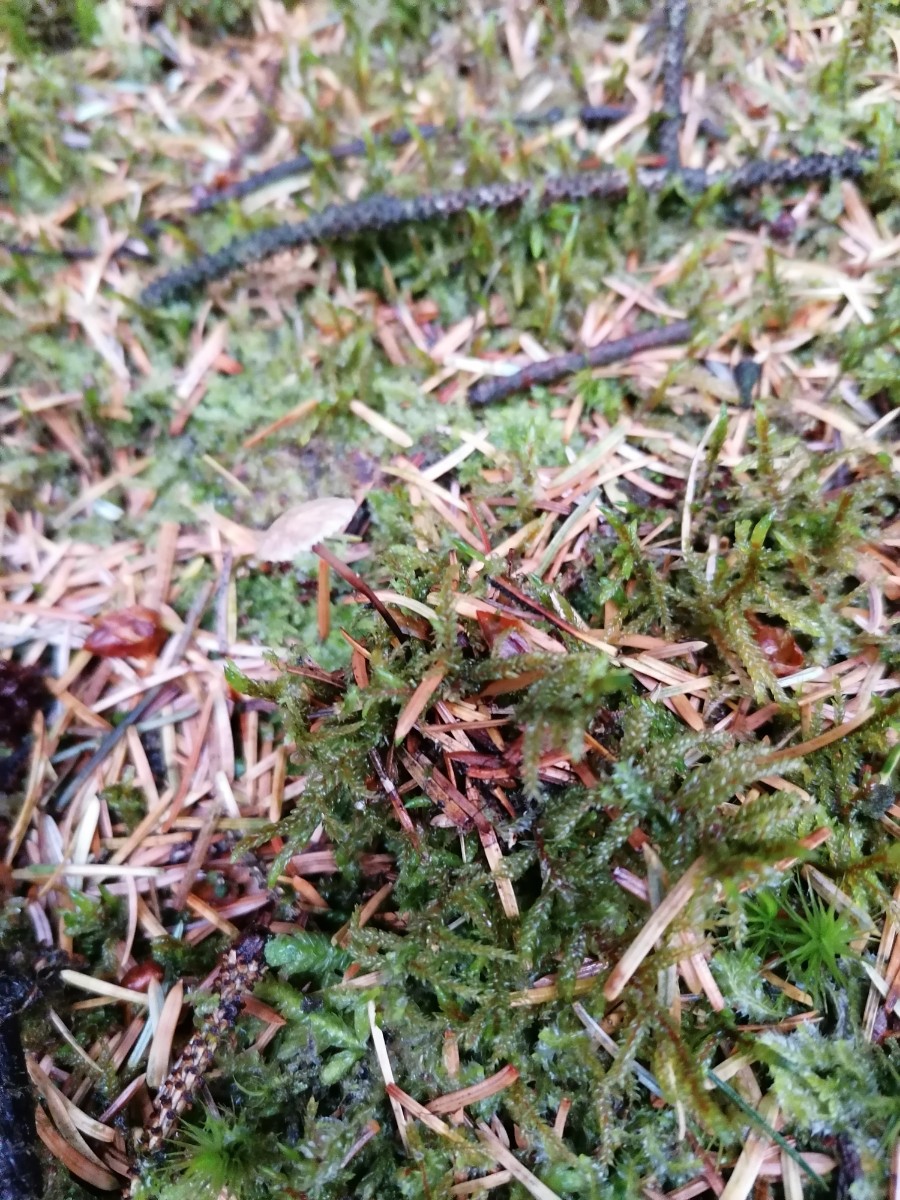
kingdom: Fungi
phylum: Basidiomycota
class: Agaricomycetes
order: Agaricales
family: Omphalotaceae
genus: Paragymnopus
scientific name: Paragymnopus perforans
